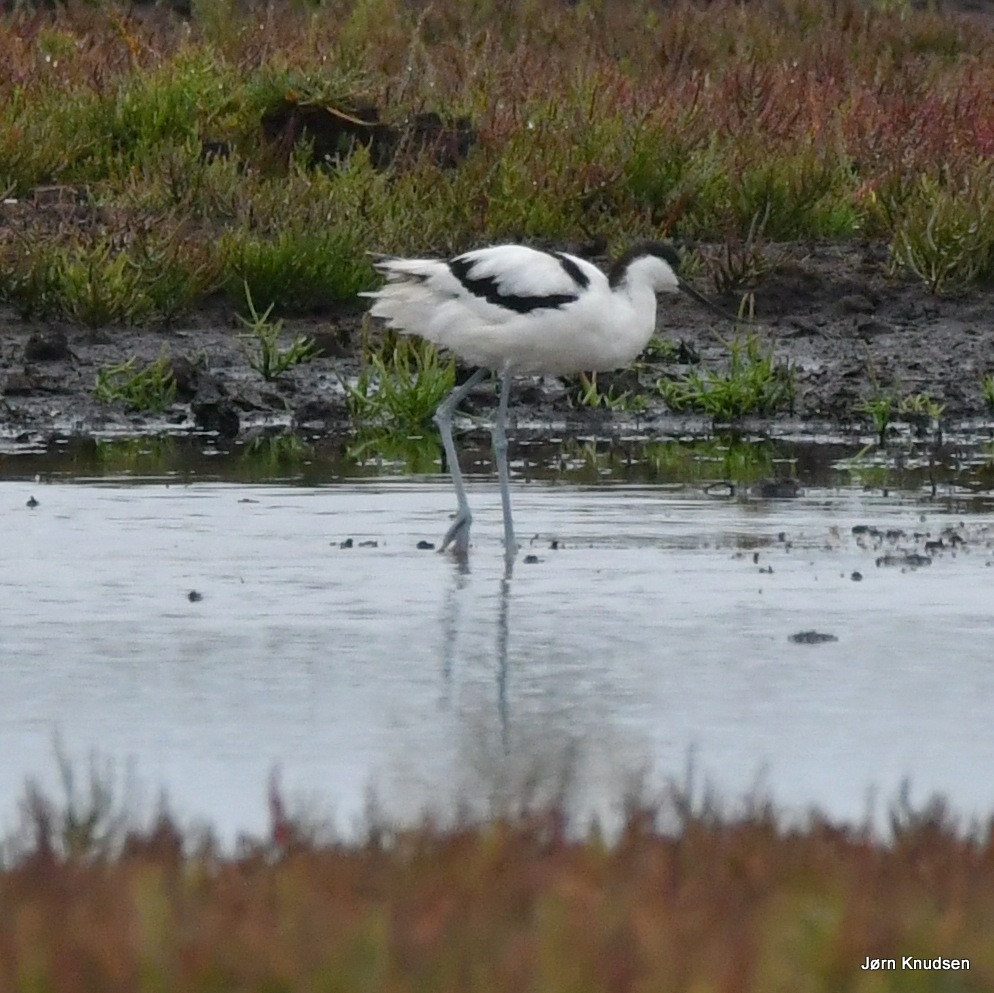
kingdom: Animalia
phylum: Chordata
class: Aves
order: Charadriiformes
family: Recurvirostridae
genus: Recurvirostra
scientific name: Recurvirostra avosetta
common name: Klyde
